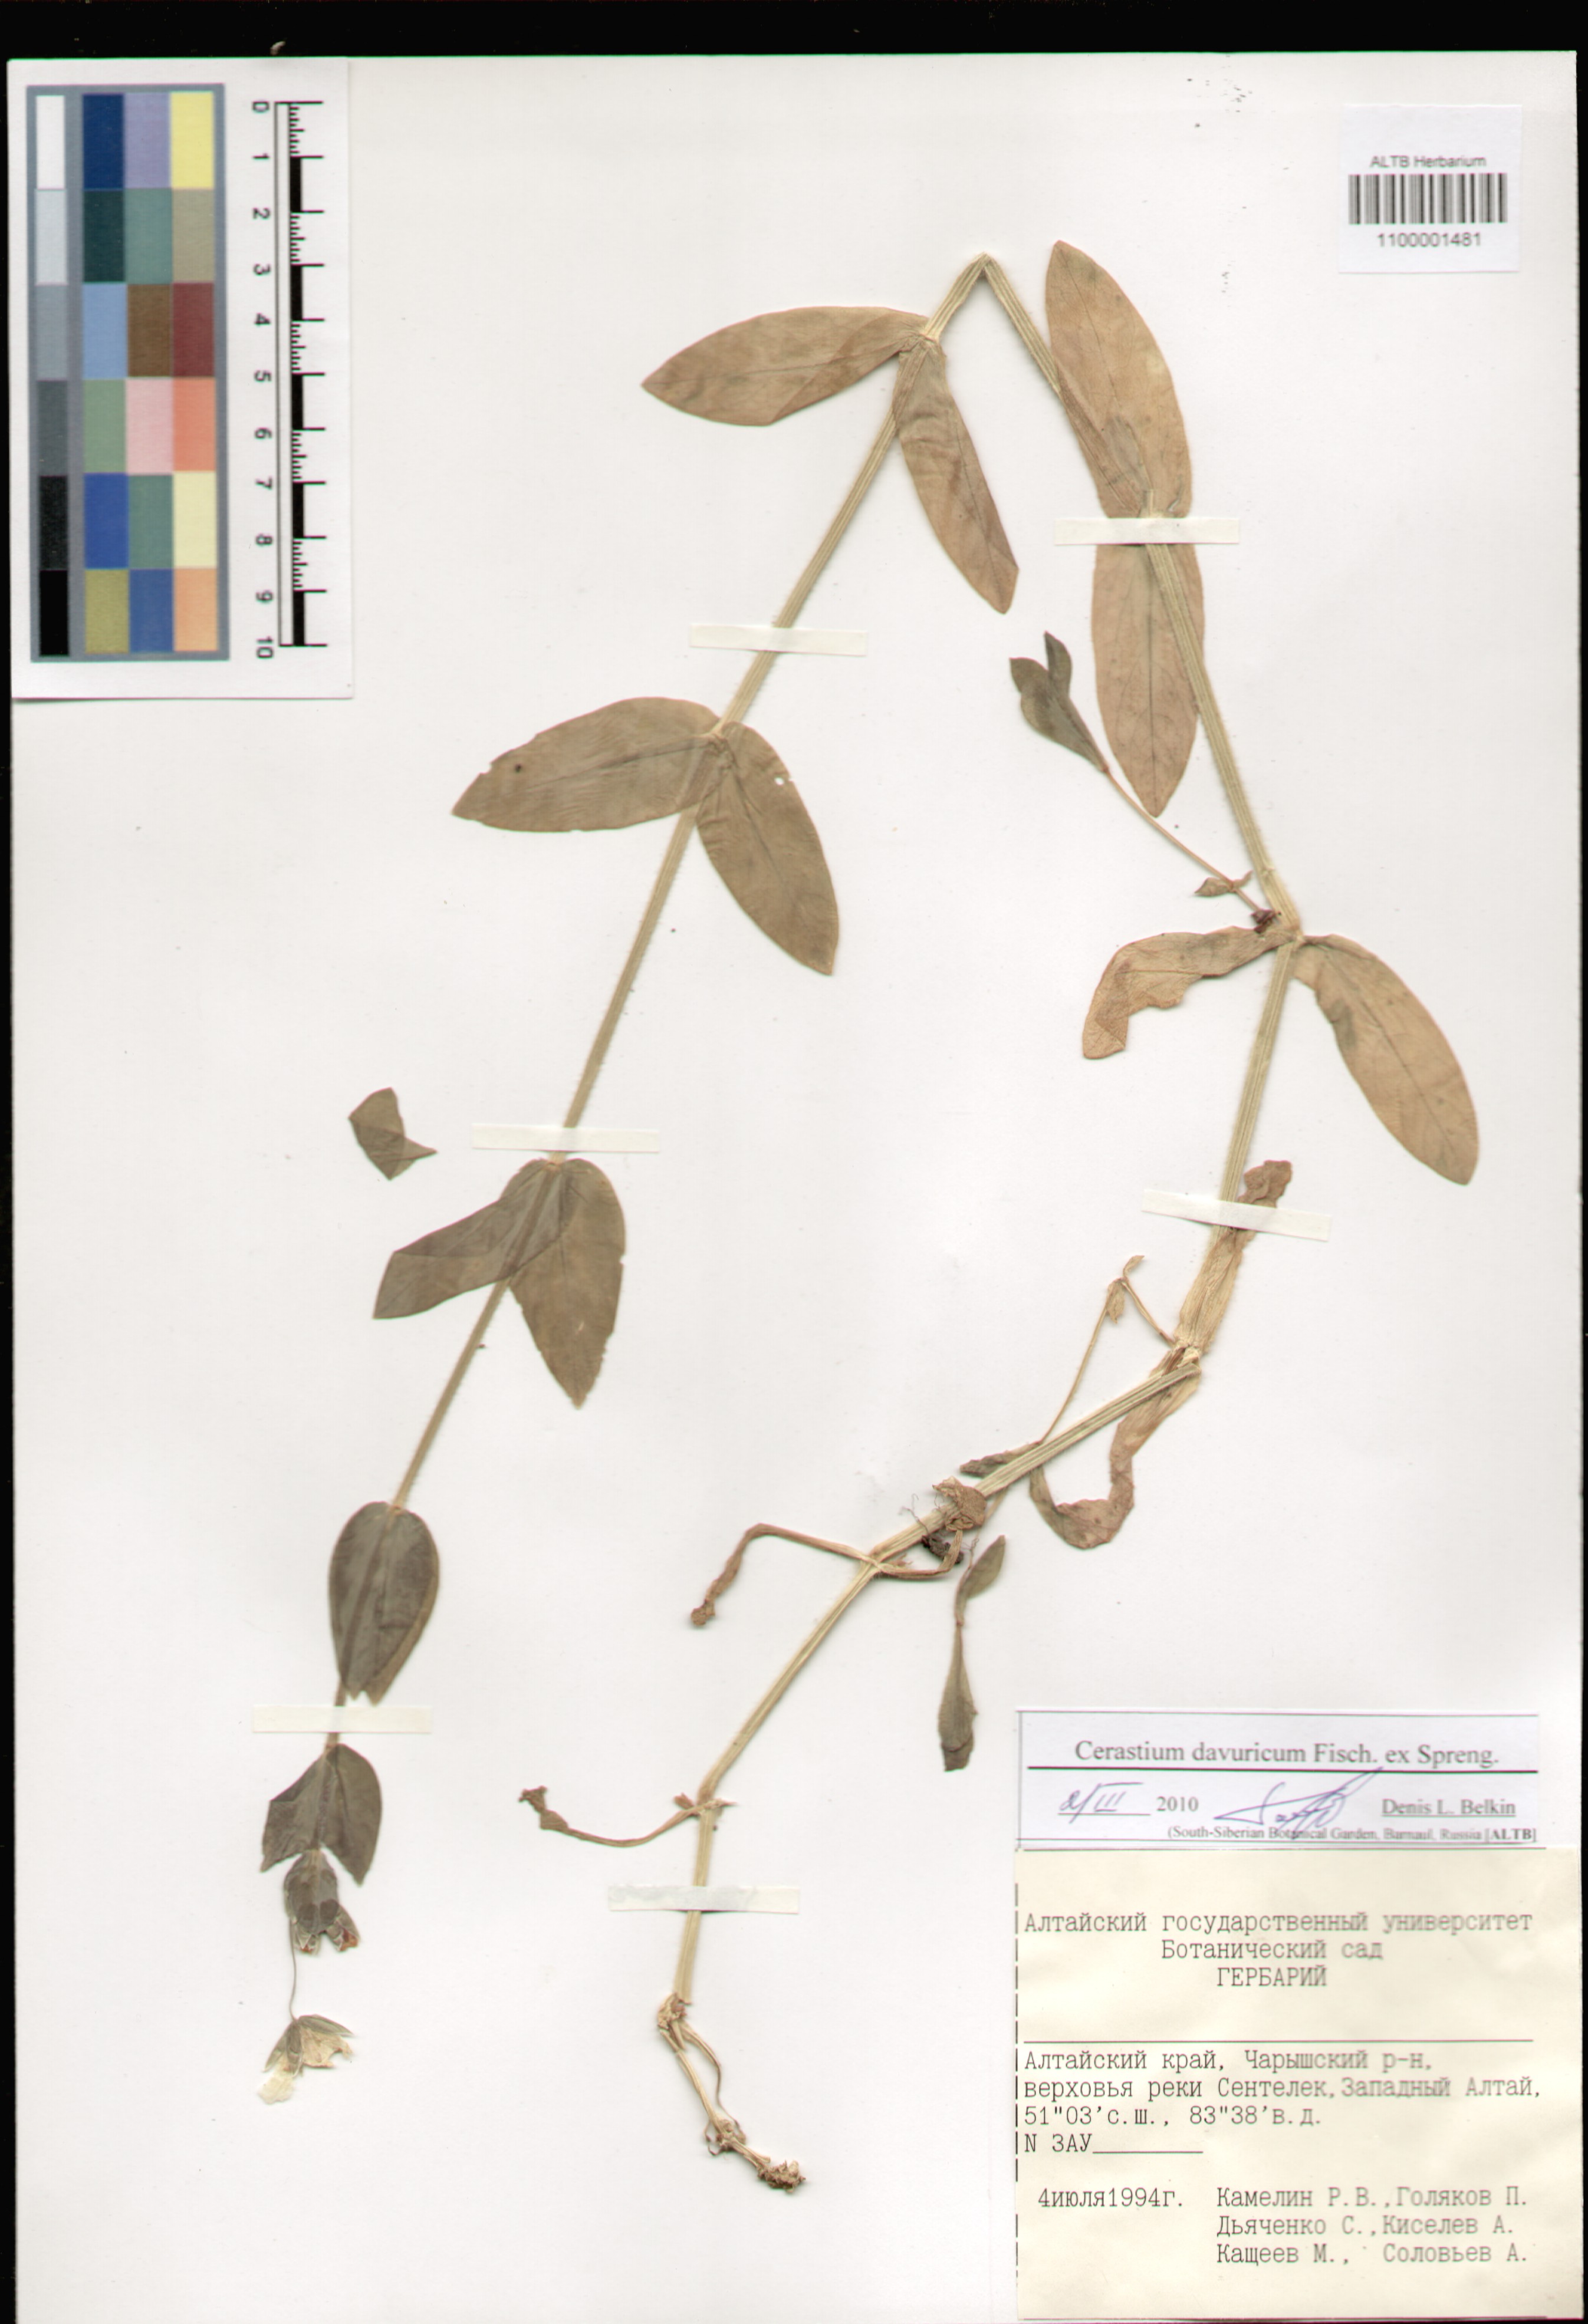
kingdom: Plantae
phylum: Tracheophyta
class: Magnoliopsida
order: Caryophyllales
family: Caryophyllaceae
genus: Dichodon
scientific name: Dichodon davuricum
